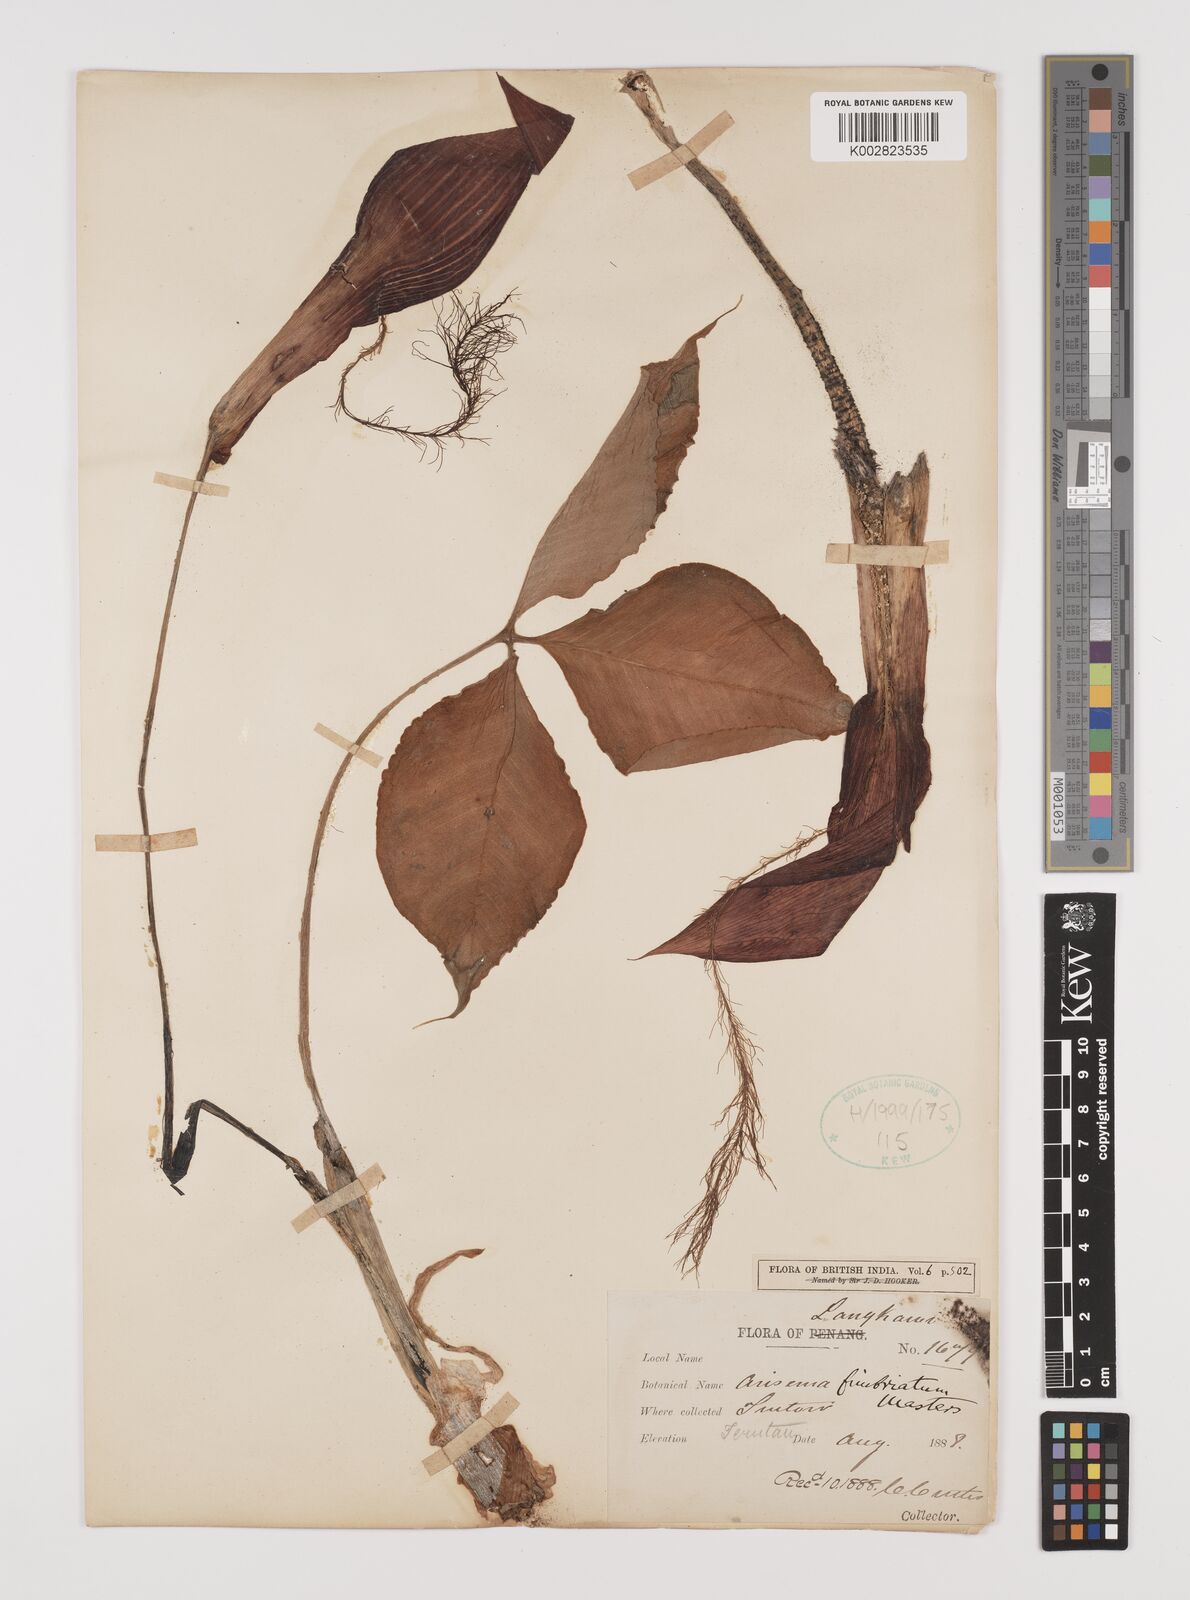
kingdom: Plantae
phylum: Tracheophyta
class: Liliopsida
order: Alismatales
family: Araceae
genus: Arisaema
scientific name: Arisaema fimbriatum
